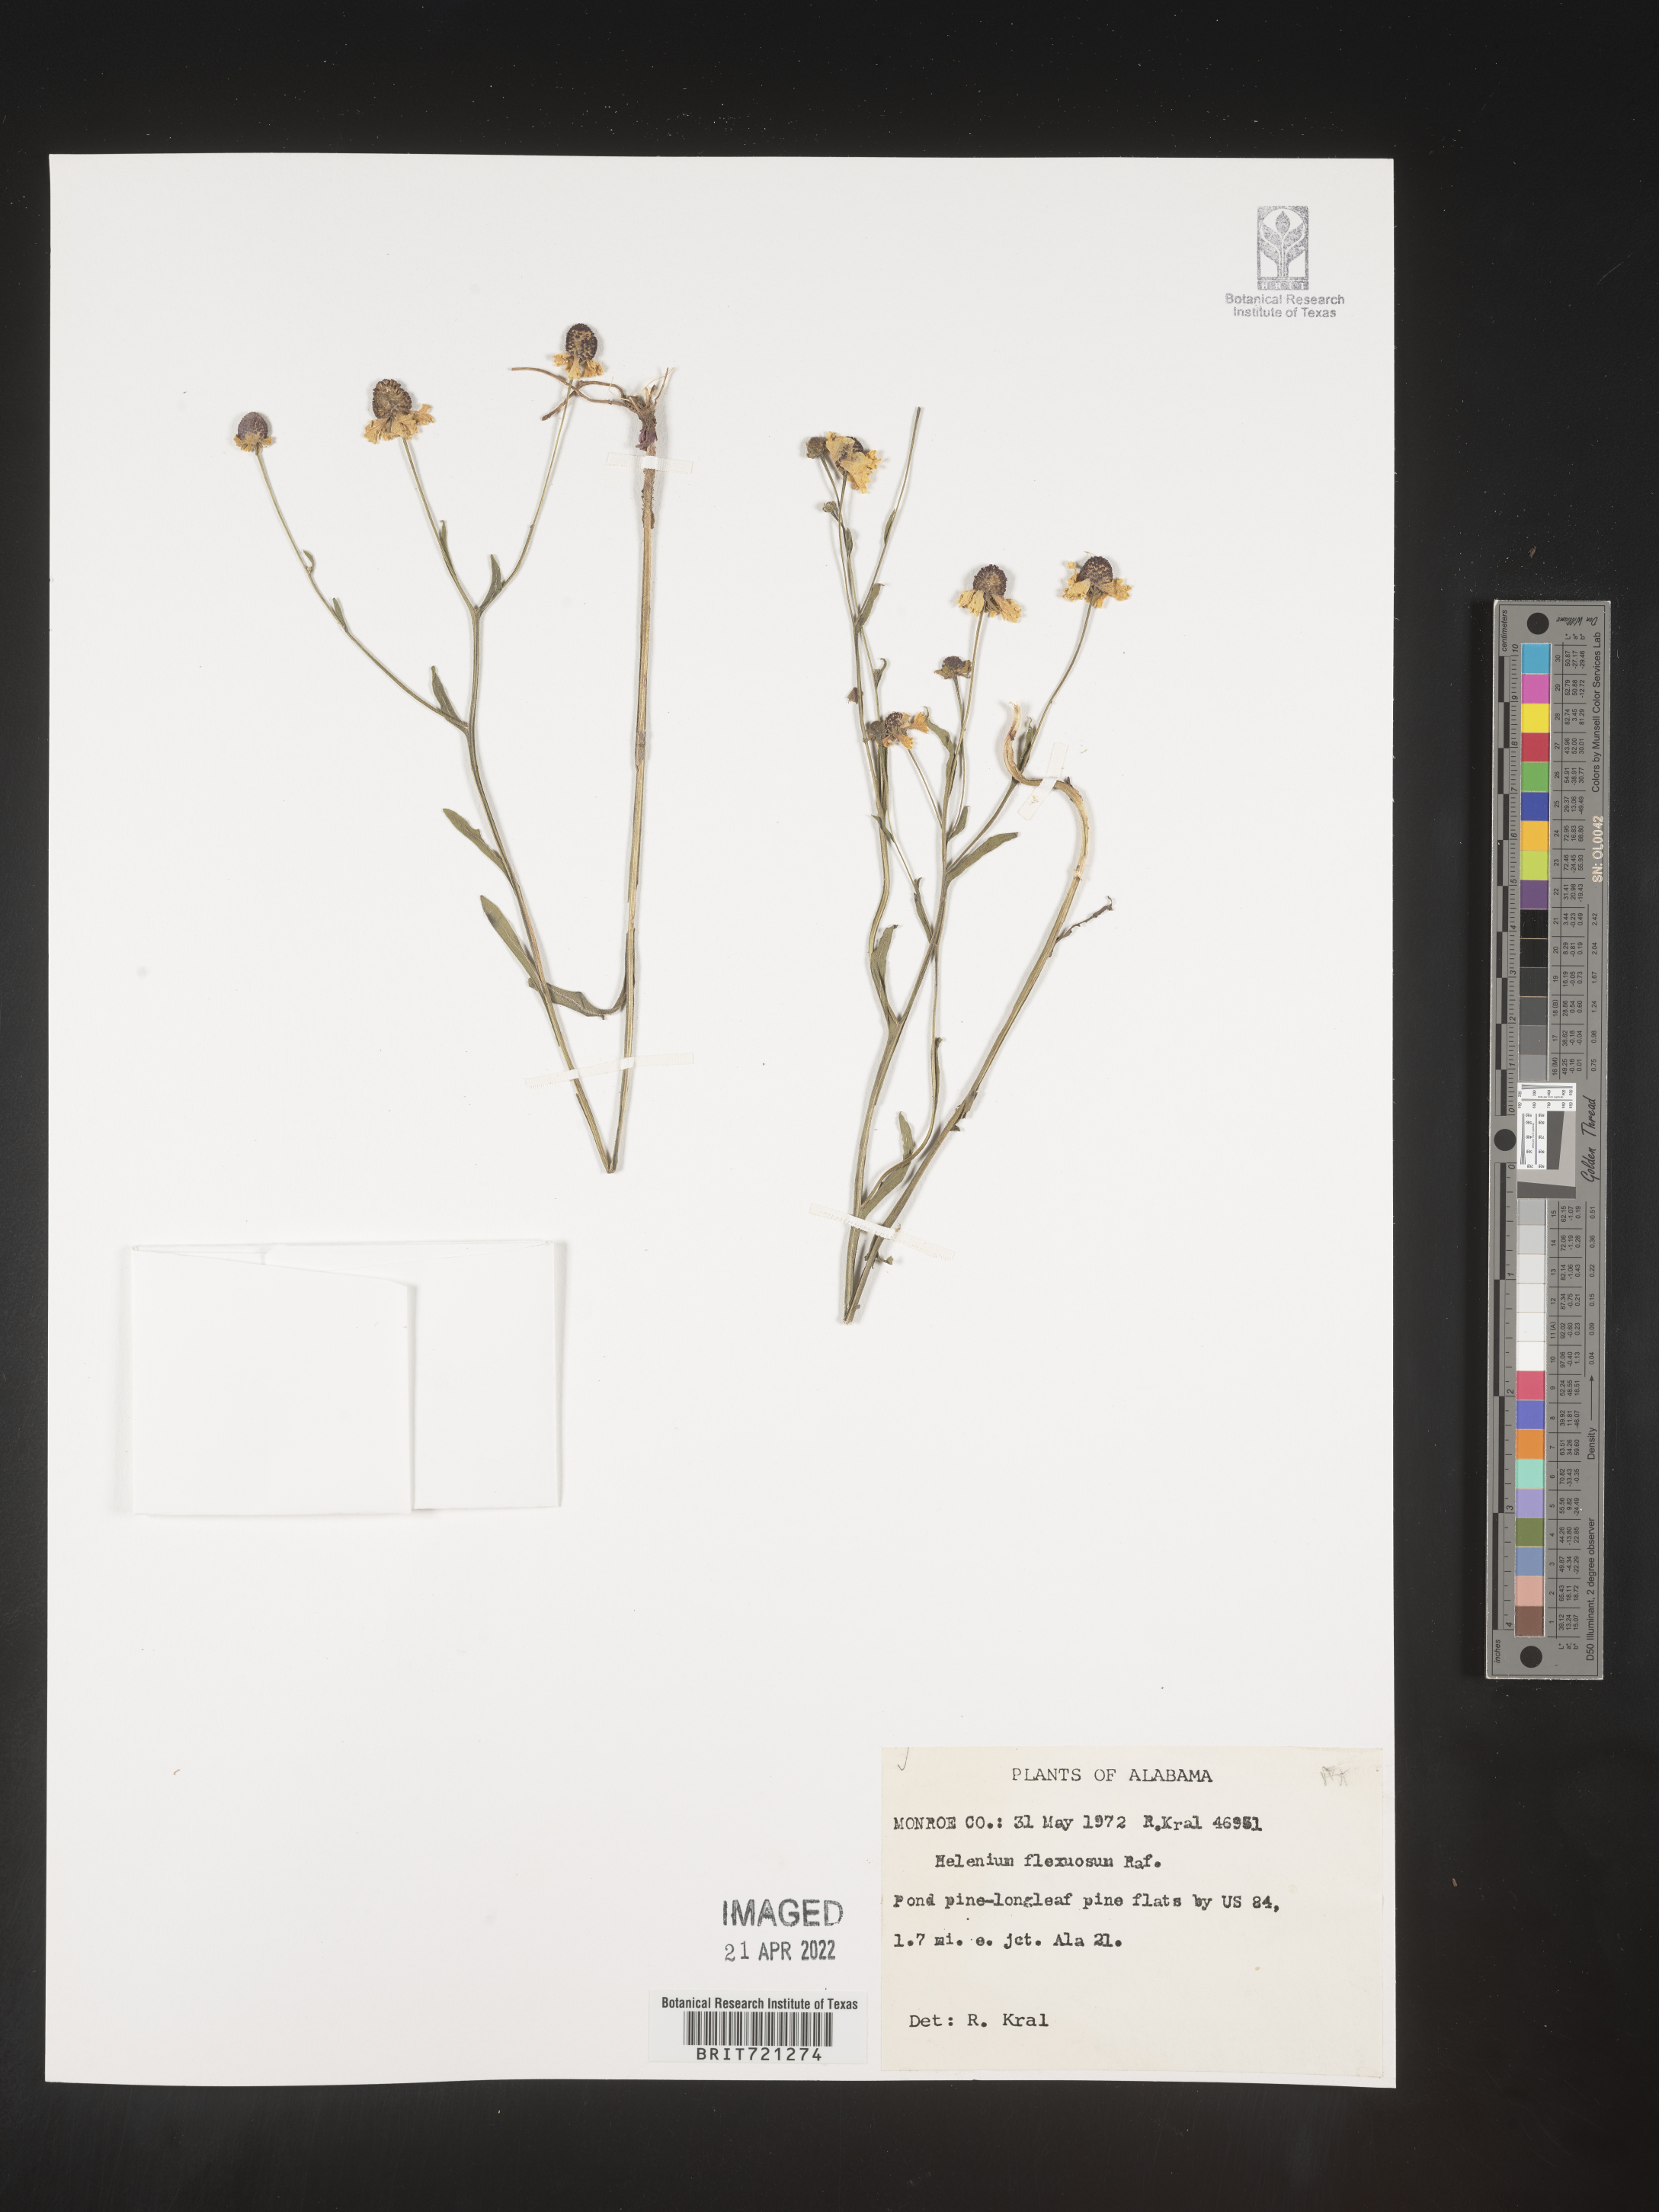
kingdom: Plantae
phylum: Tracheophyta
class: Magnoliopsida
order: Asterales
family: Asteraceae
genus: Helenium
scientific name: Helenium flexuosum
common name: Naked-flowered sneezeweed
